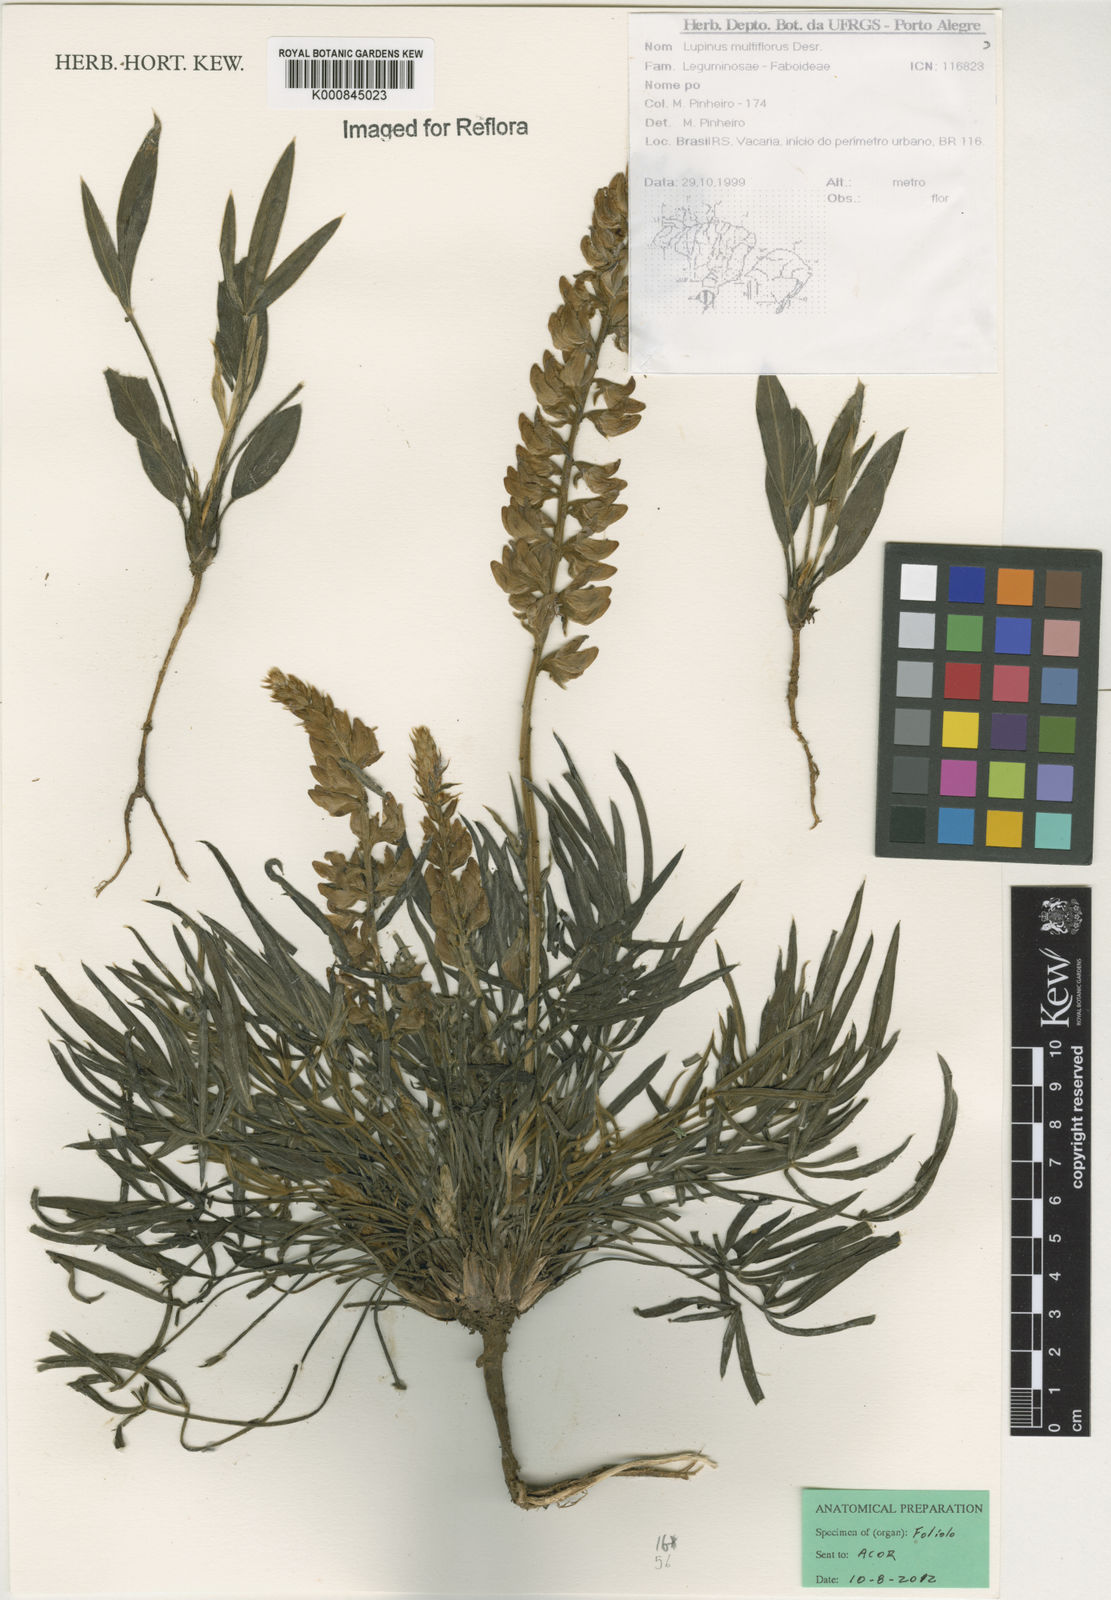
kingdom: Plantae
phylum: Tracheophyta
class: Magnoliopsida
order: Fabales
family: Fabaceae
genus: Lupinus
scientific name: Lupinus multiflorus
